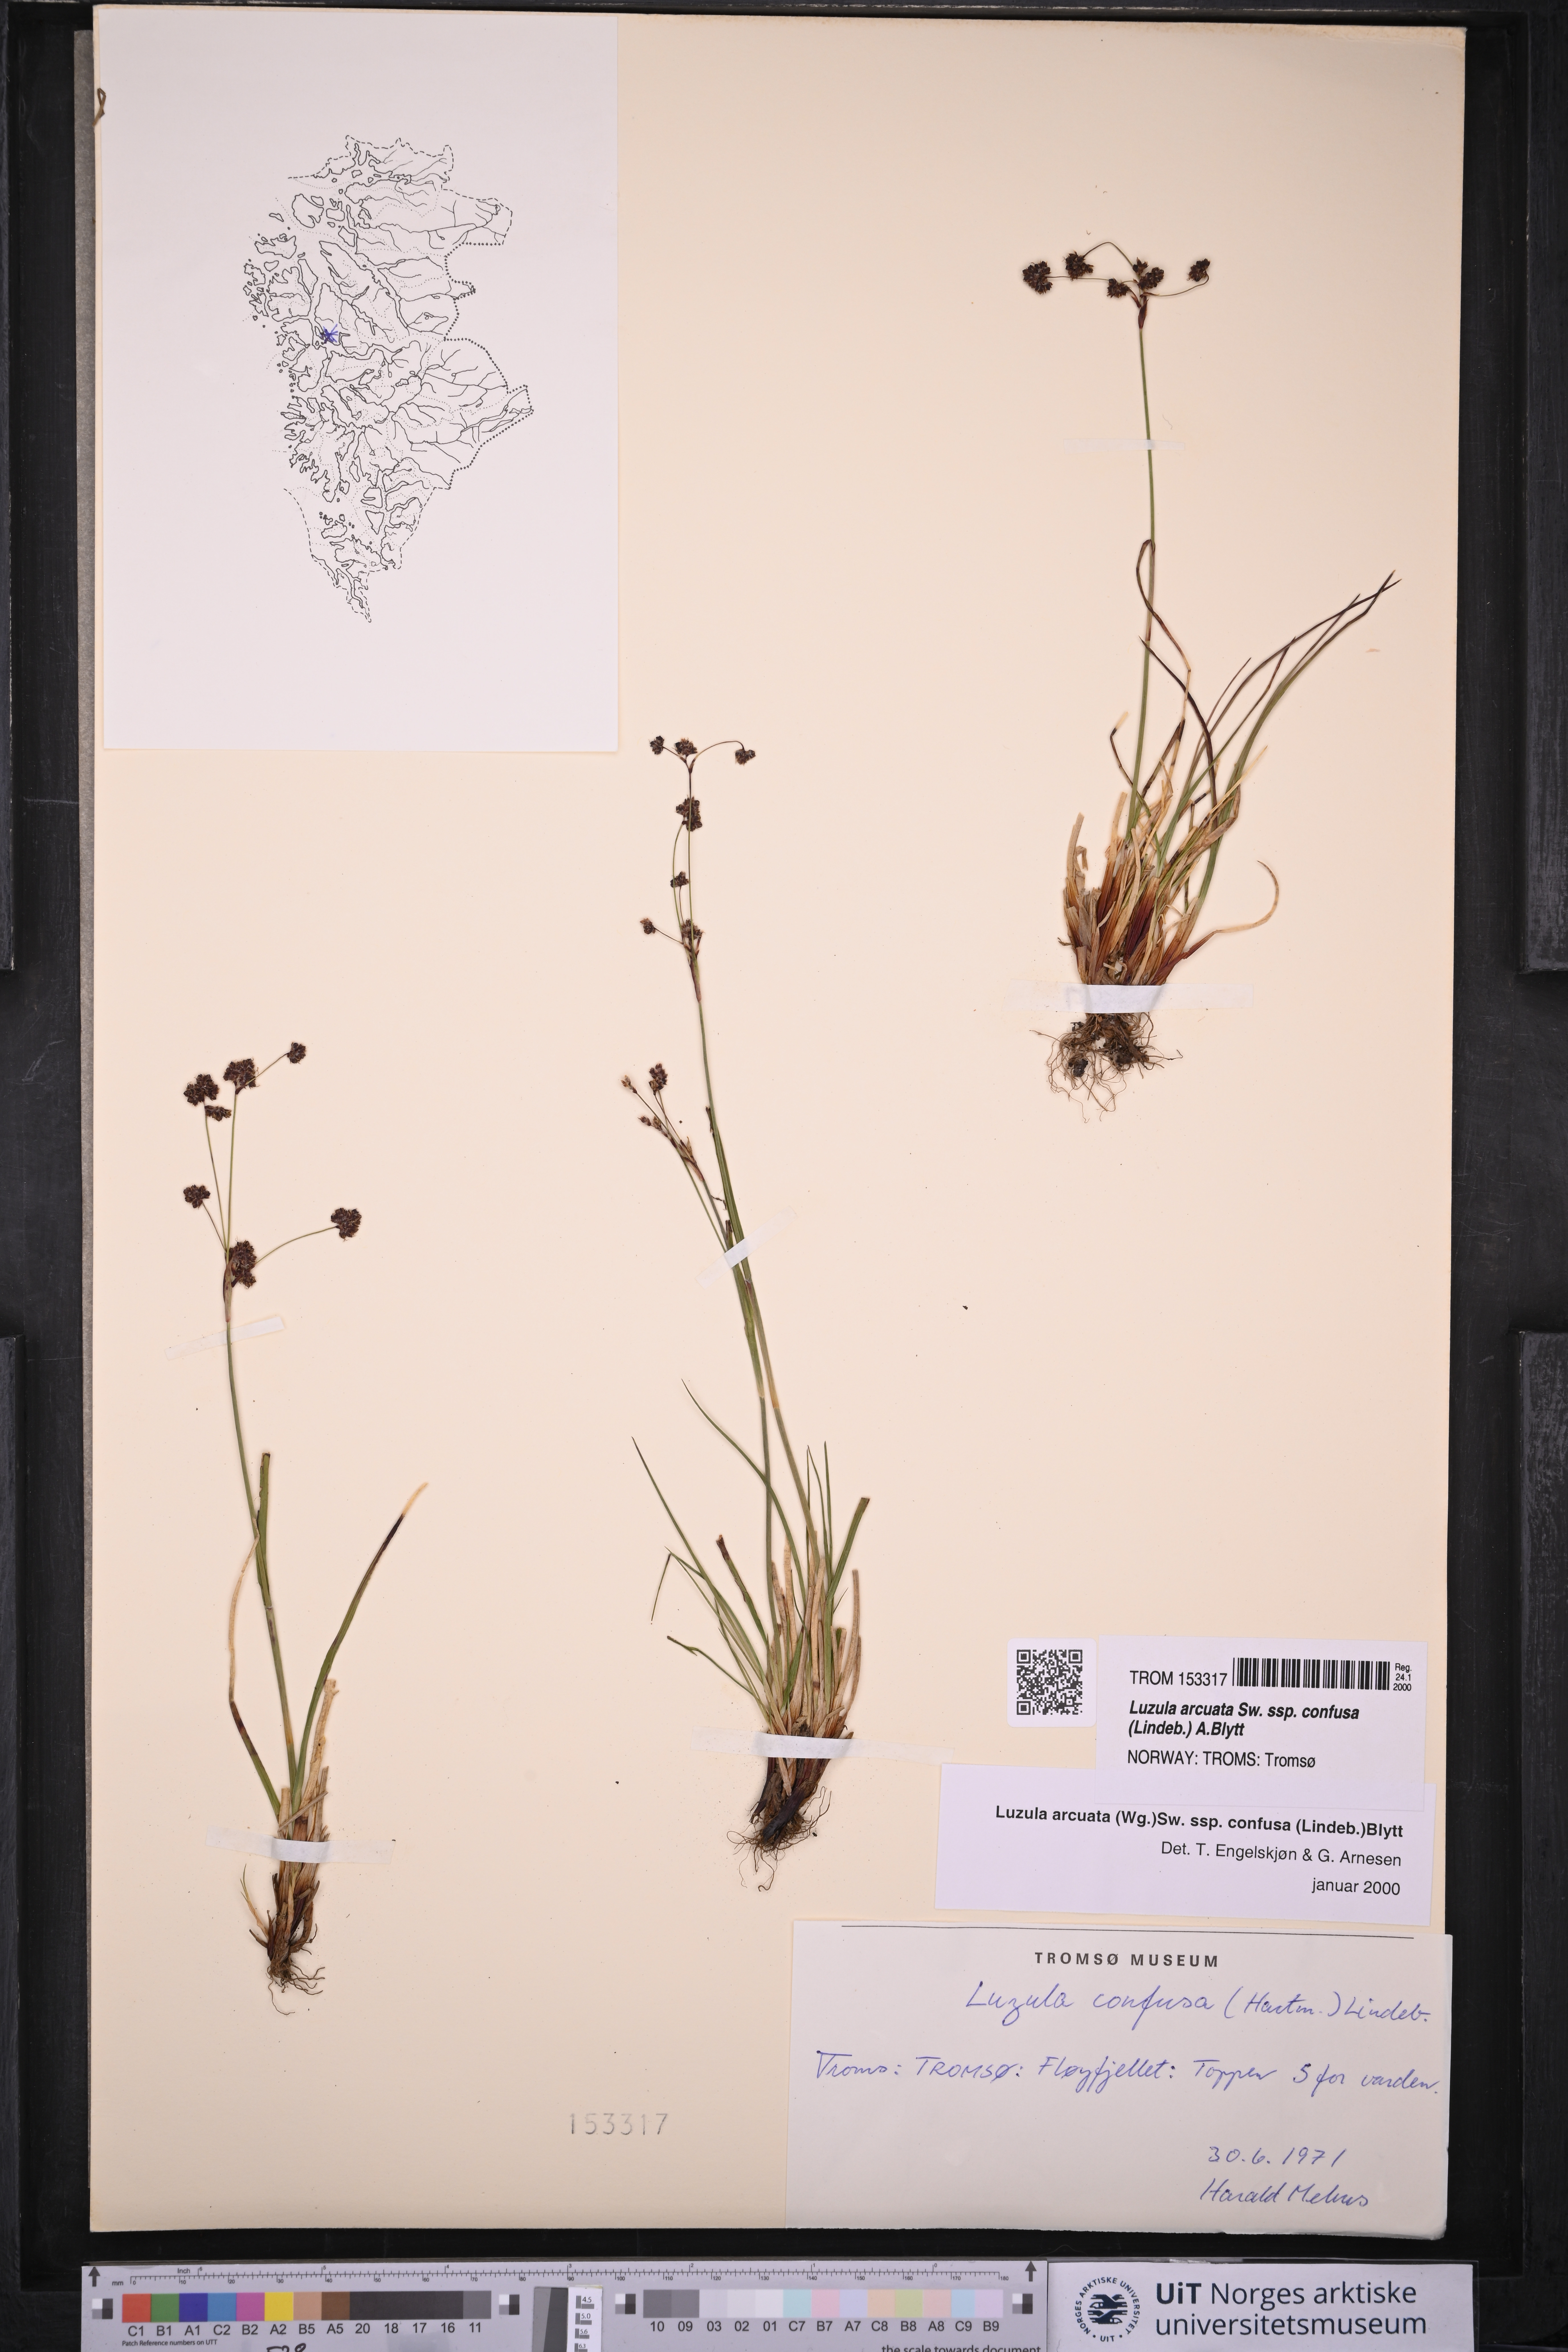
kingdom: Plantae
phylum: Tracheophyta
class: Liliopsida
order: Poales
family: Juncaceae
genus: Luzula
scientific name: Luzula confusa
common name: Northern wood rush
